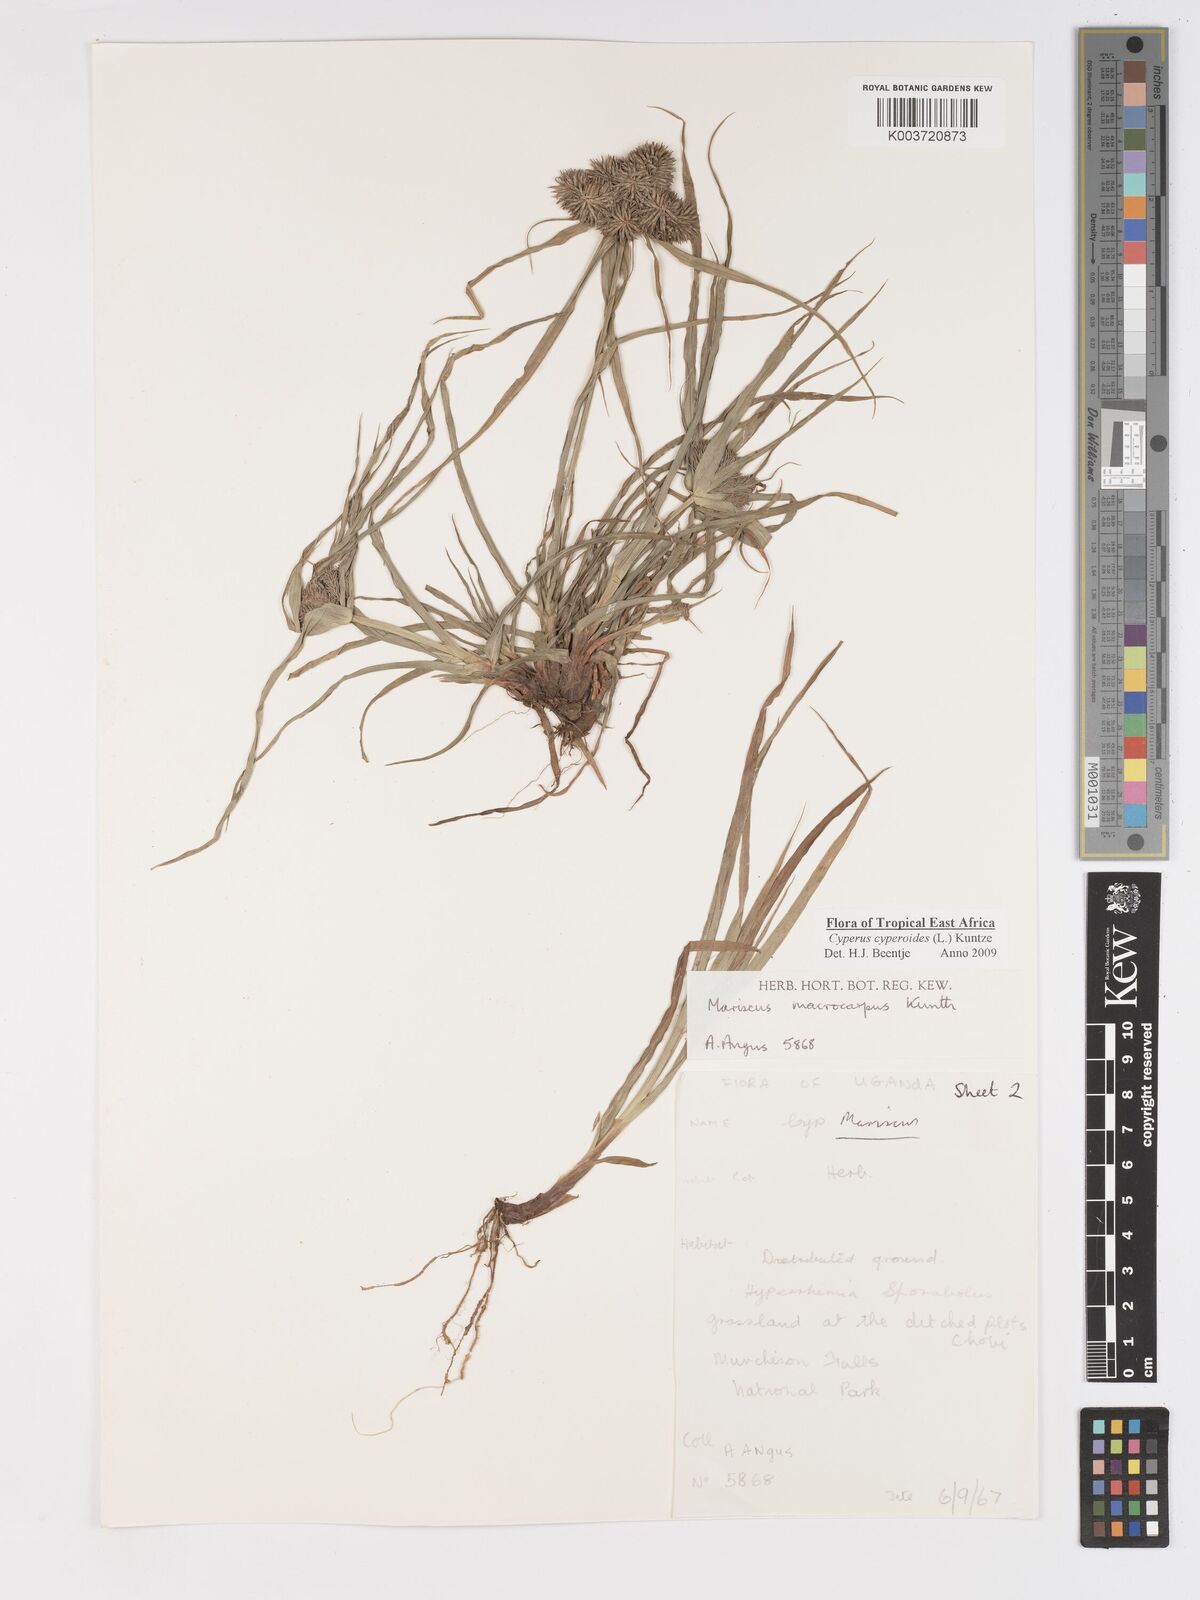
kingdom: Plantae
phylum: Tracheophyta
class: Liliopsida
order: Poales
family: Cyperaceae
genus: Cyperus
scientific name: Cyperus macrocarpus
